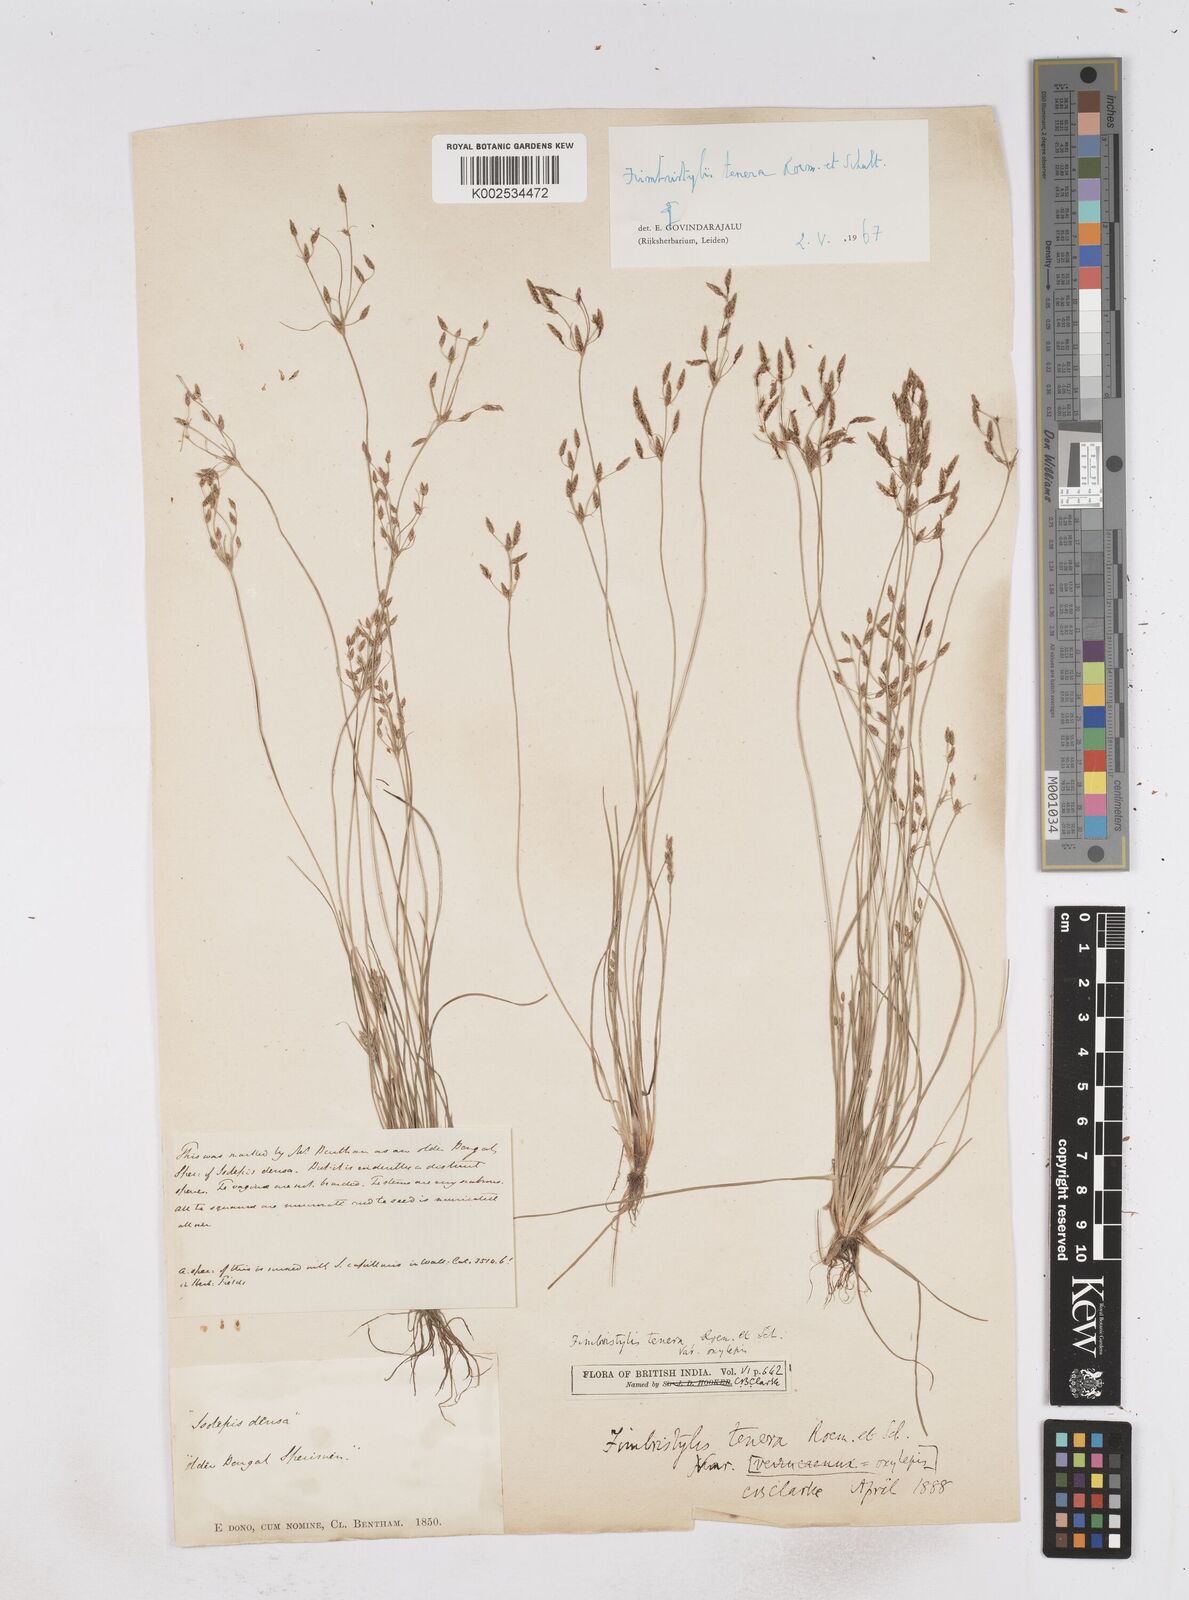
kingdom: Plantae
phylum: Tracheophyta
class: Liliopsida
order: Poales
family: Cyperaceae
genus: Fimbristylis
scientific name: Fimbristylis tenera
